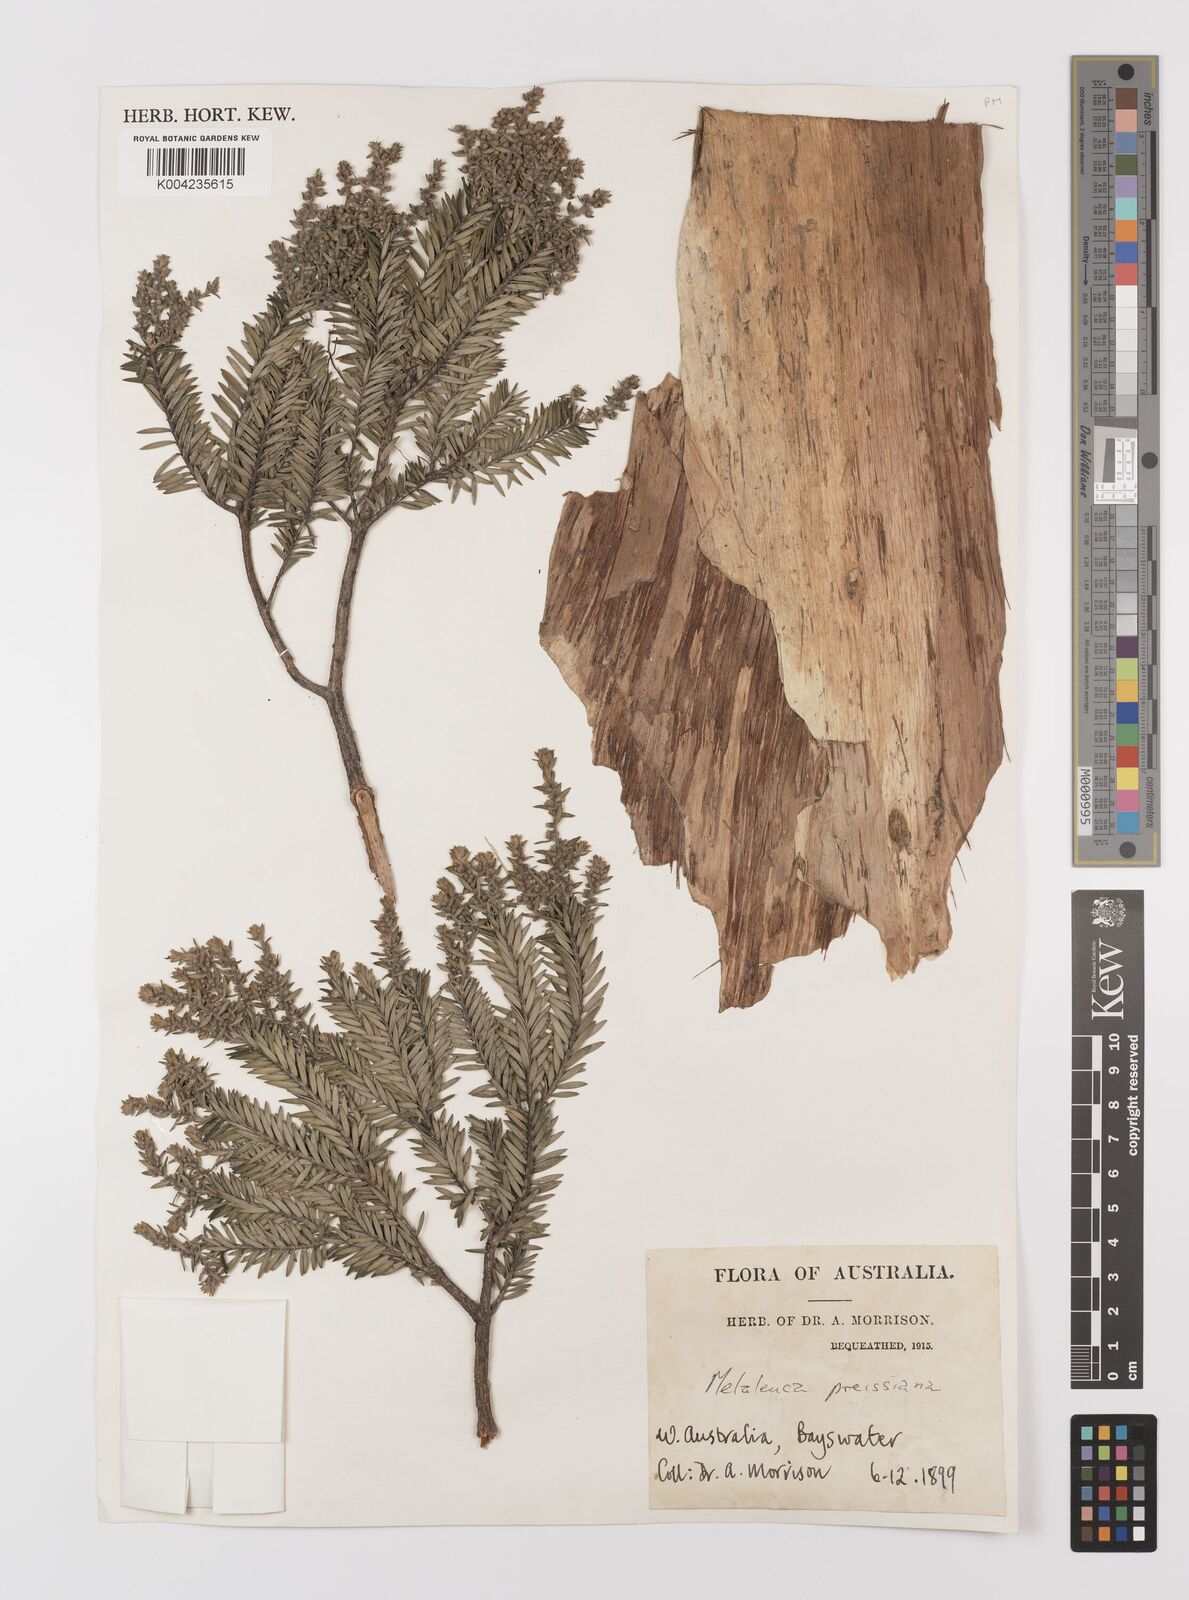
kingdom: Plantae
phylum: Tracheophyta
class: Magnoliopsida
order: Myrtales
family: Myrtaceae
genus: Melaleuca
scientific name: Melaleuca preissiana
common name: Preiss's paperbark
